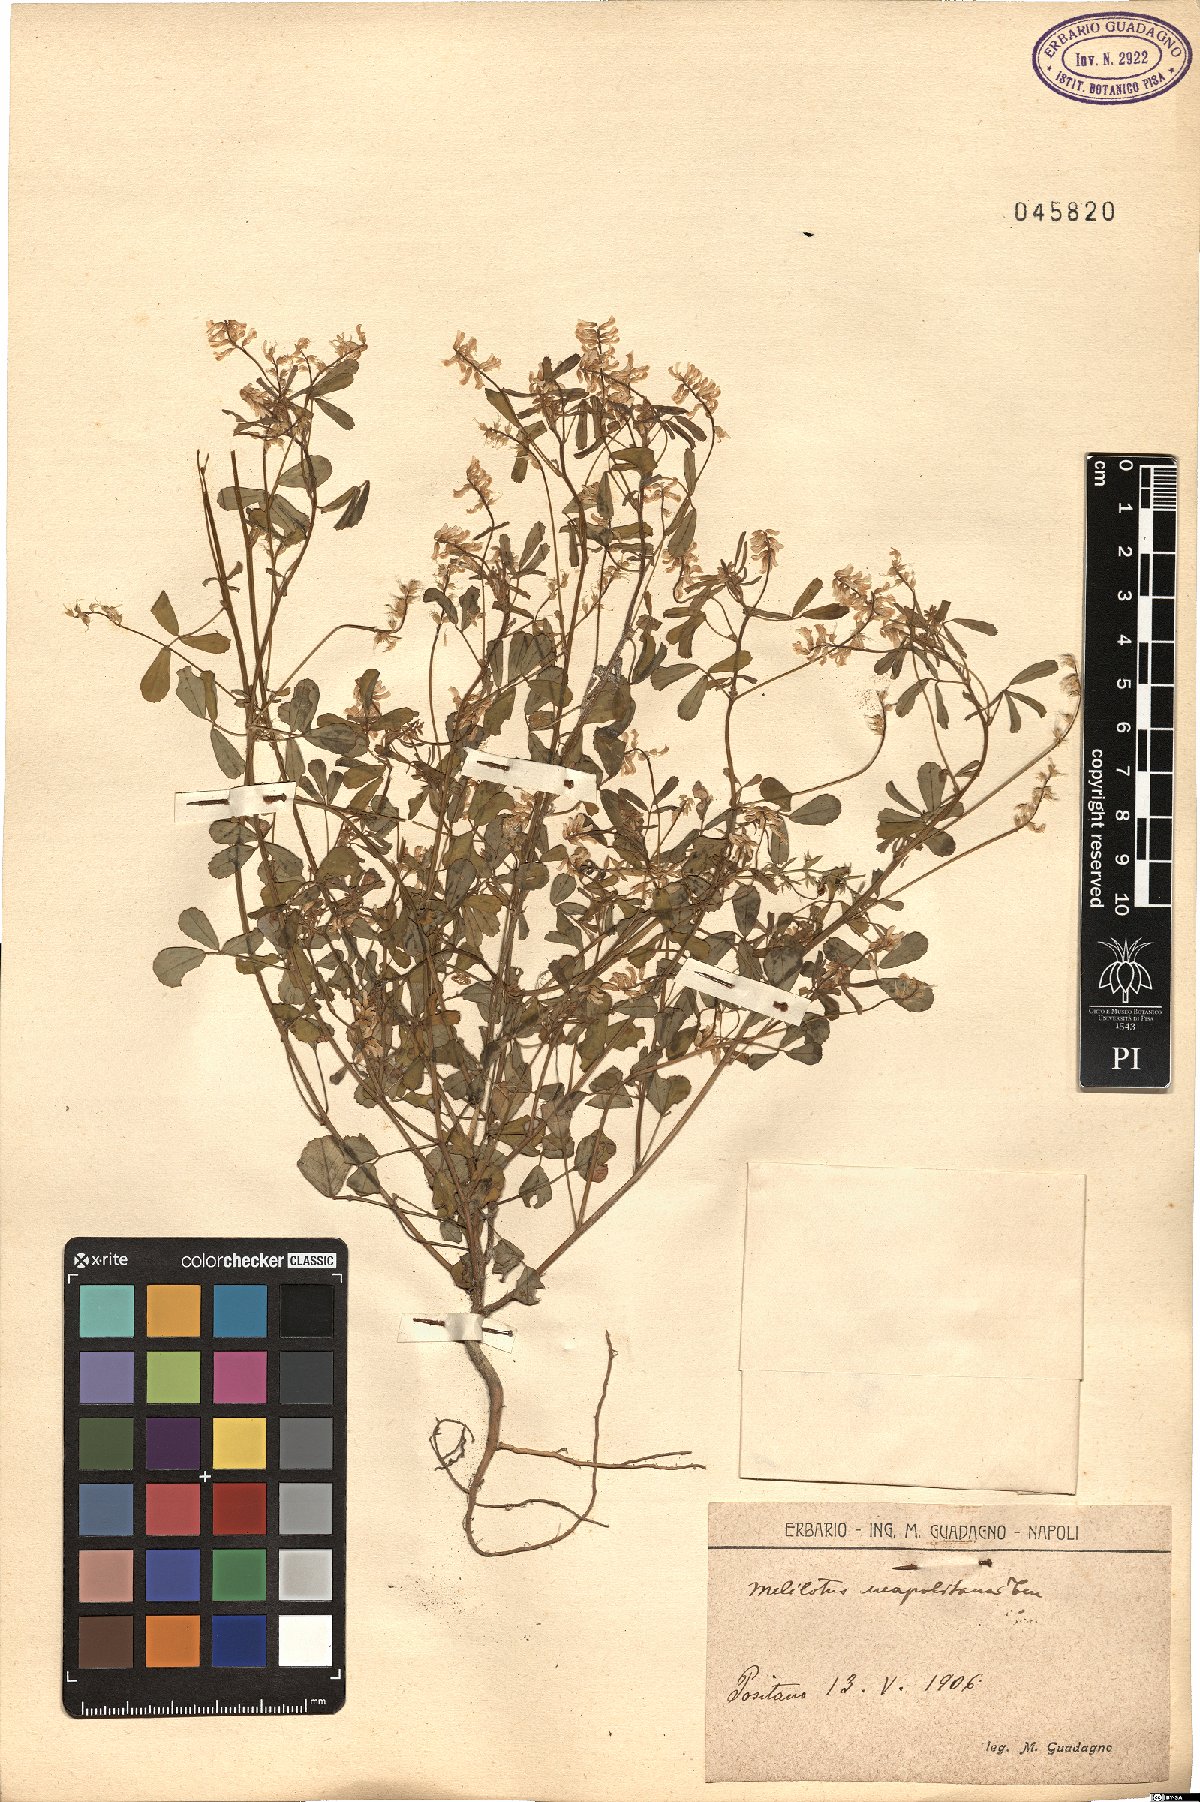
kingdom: Plantae
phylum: Tracheophyta
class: Magnoliopsida
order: Fabales
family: Fabaceae
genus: Melilotus
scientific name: Melilotus neapolitanus
